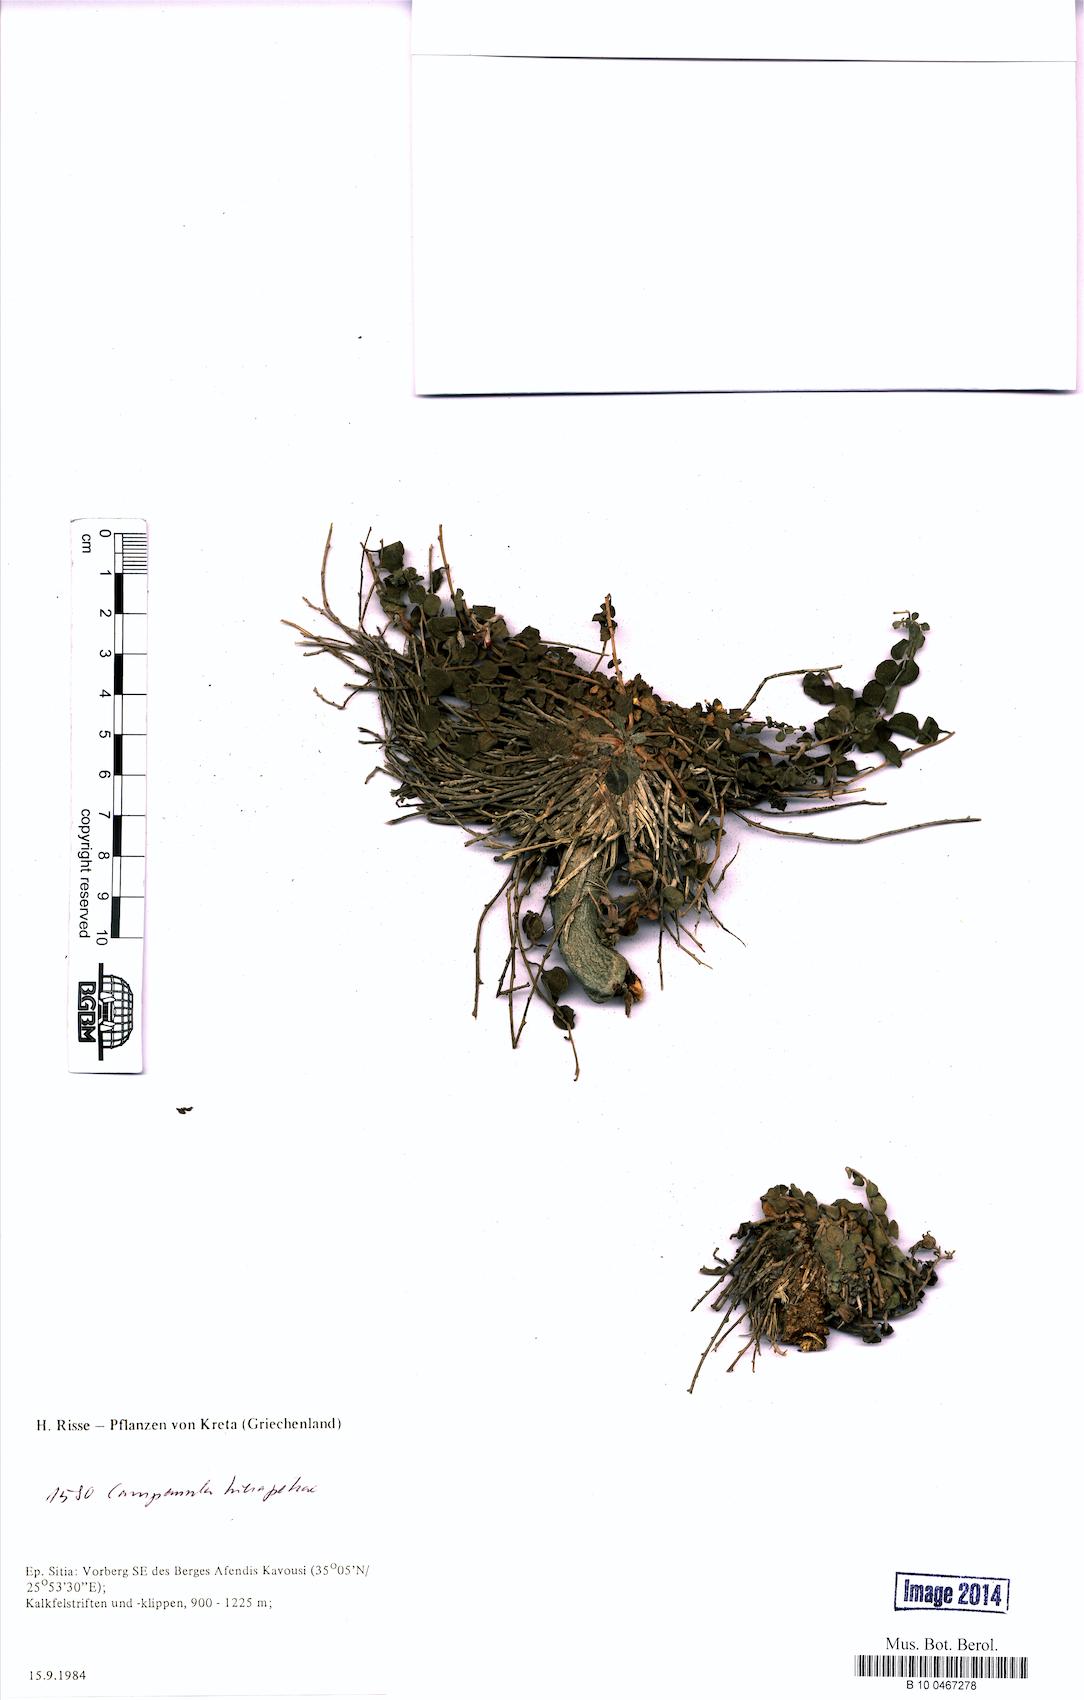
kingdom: Plantae
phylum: Tracheophyta
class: Magnoliopsida
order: Asterales
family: Campanulaceae
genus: Campanula
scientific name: Campanula hierapetrae
